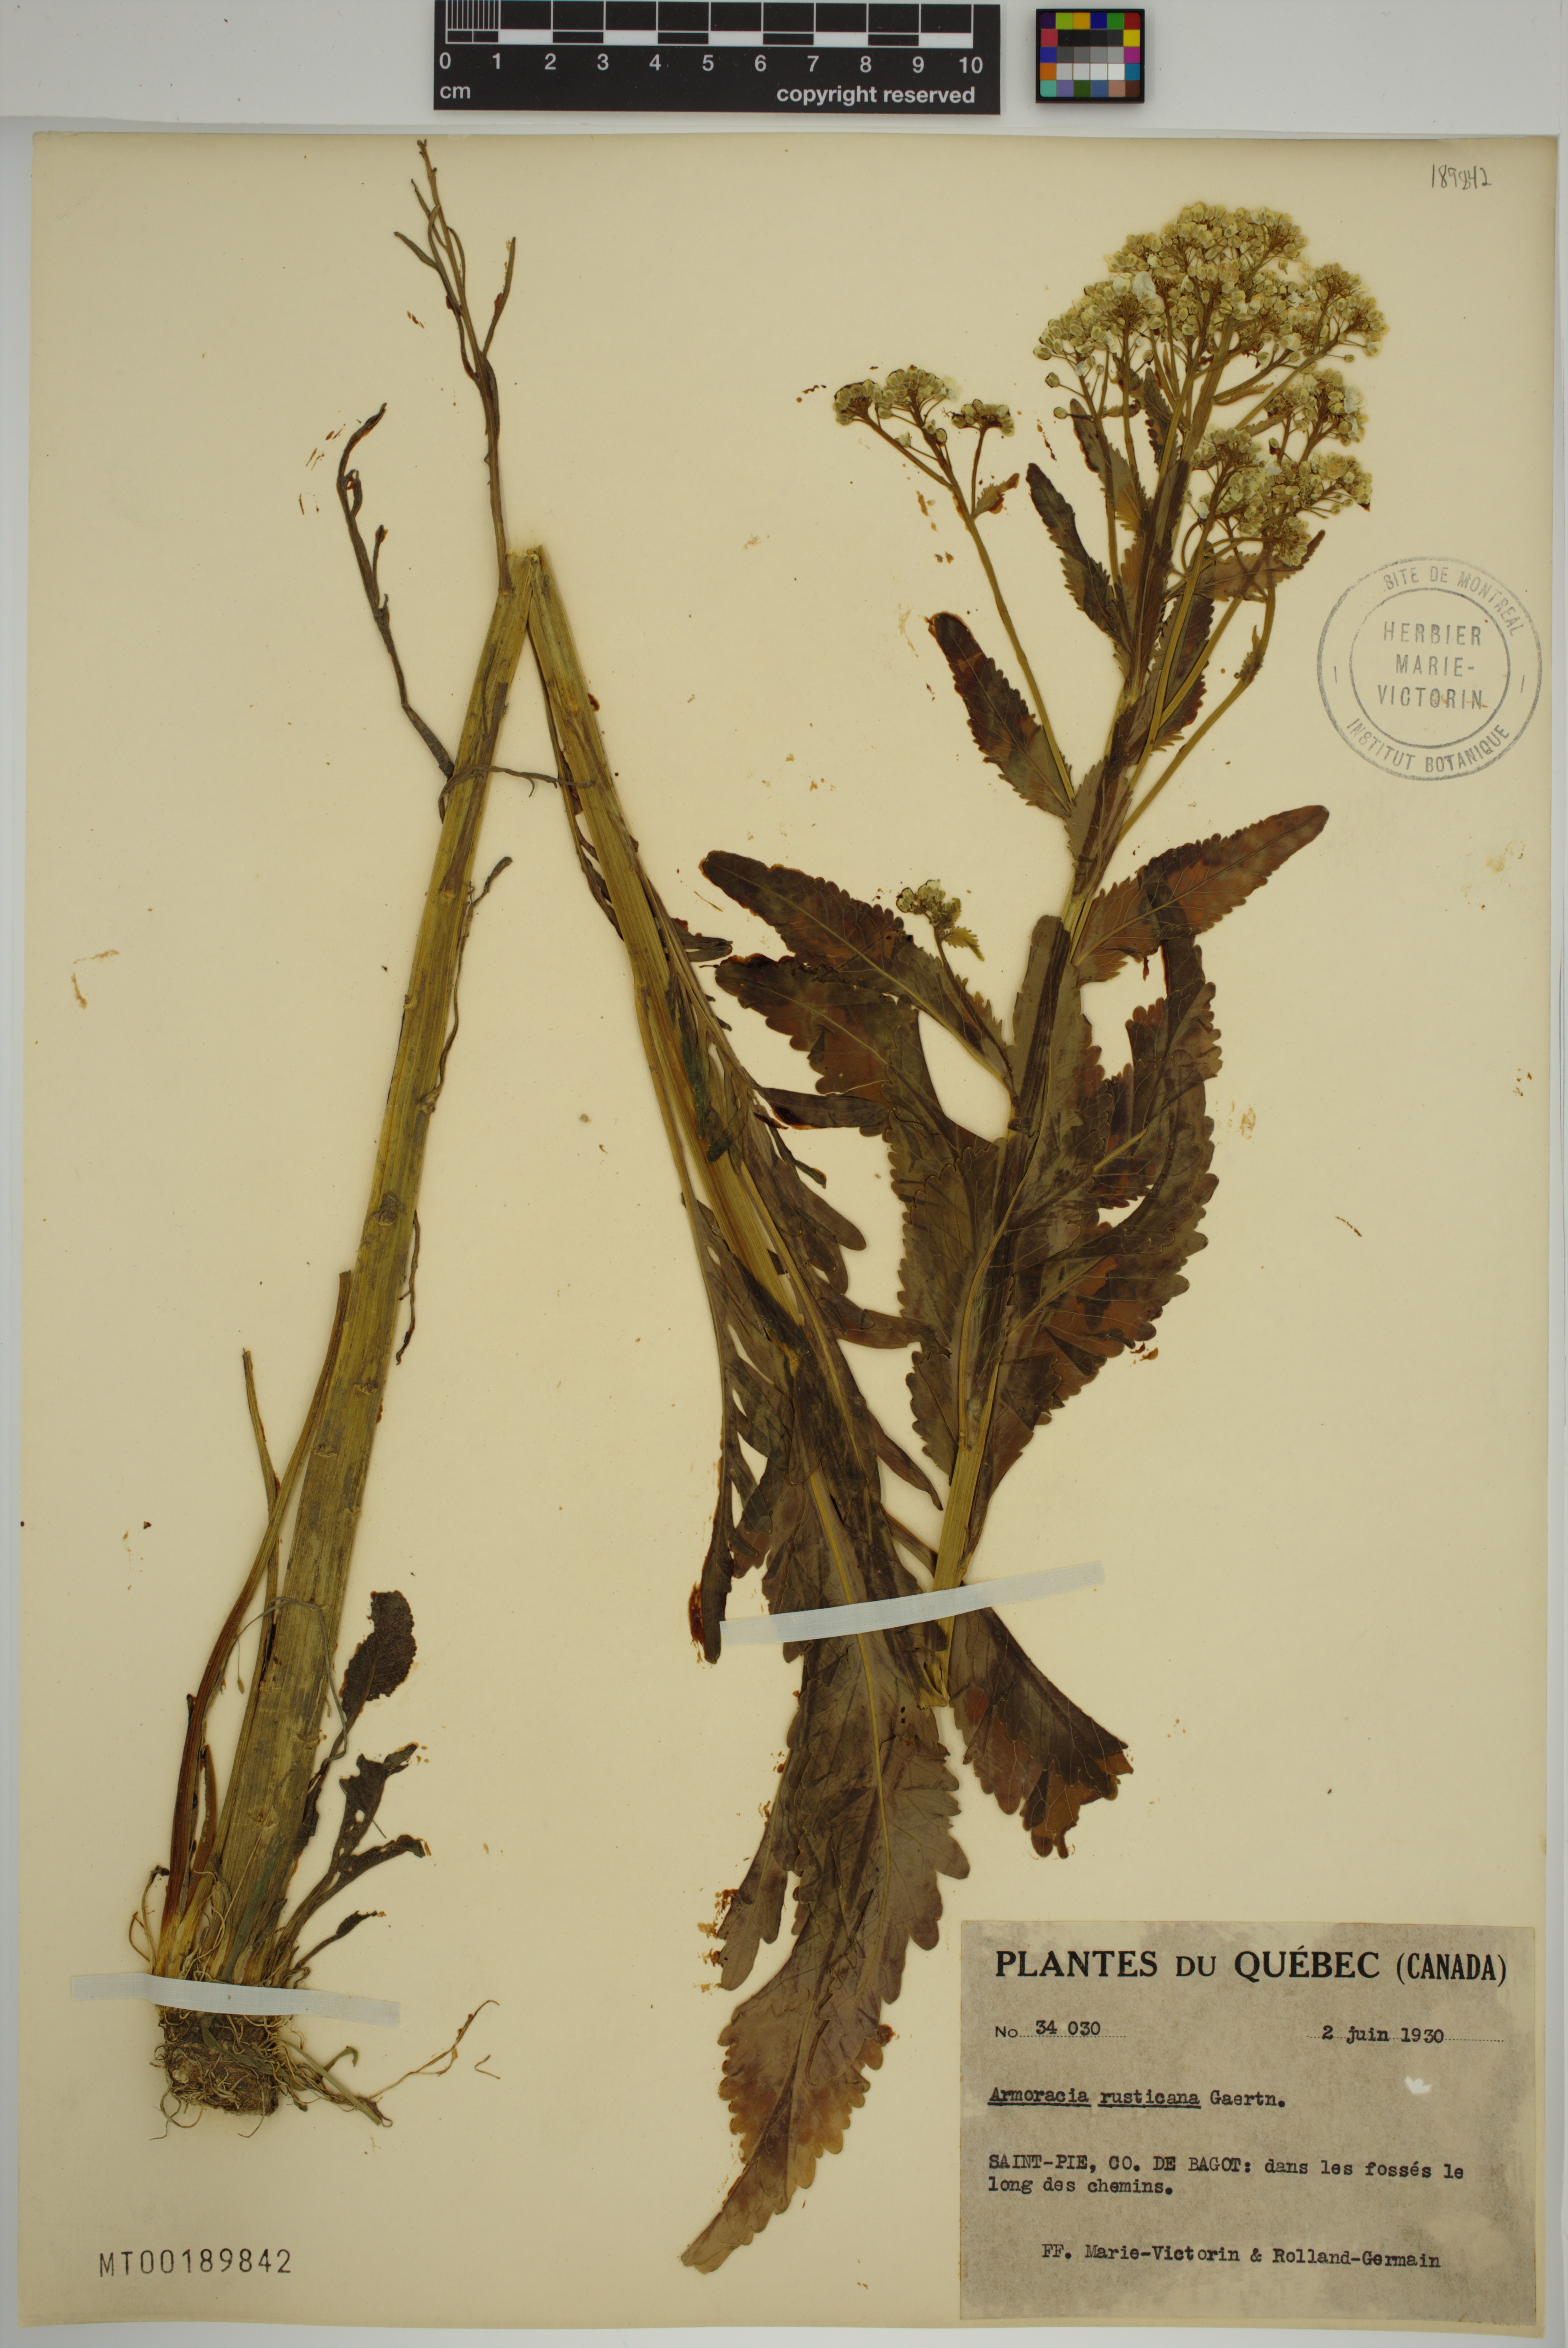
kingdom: Plantae
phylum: Tracheophyta
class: Magnoliopsida
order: Brassicales
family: Brassicaceae
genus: Armoracia
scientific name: Armoracia rusticana
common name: Horseradish
